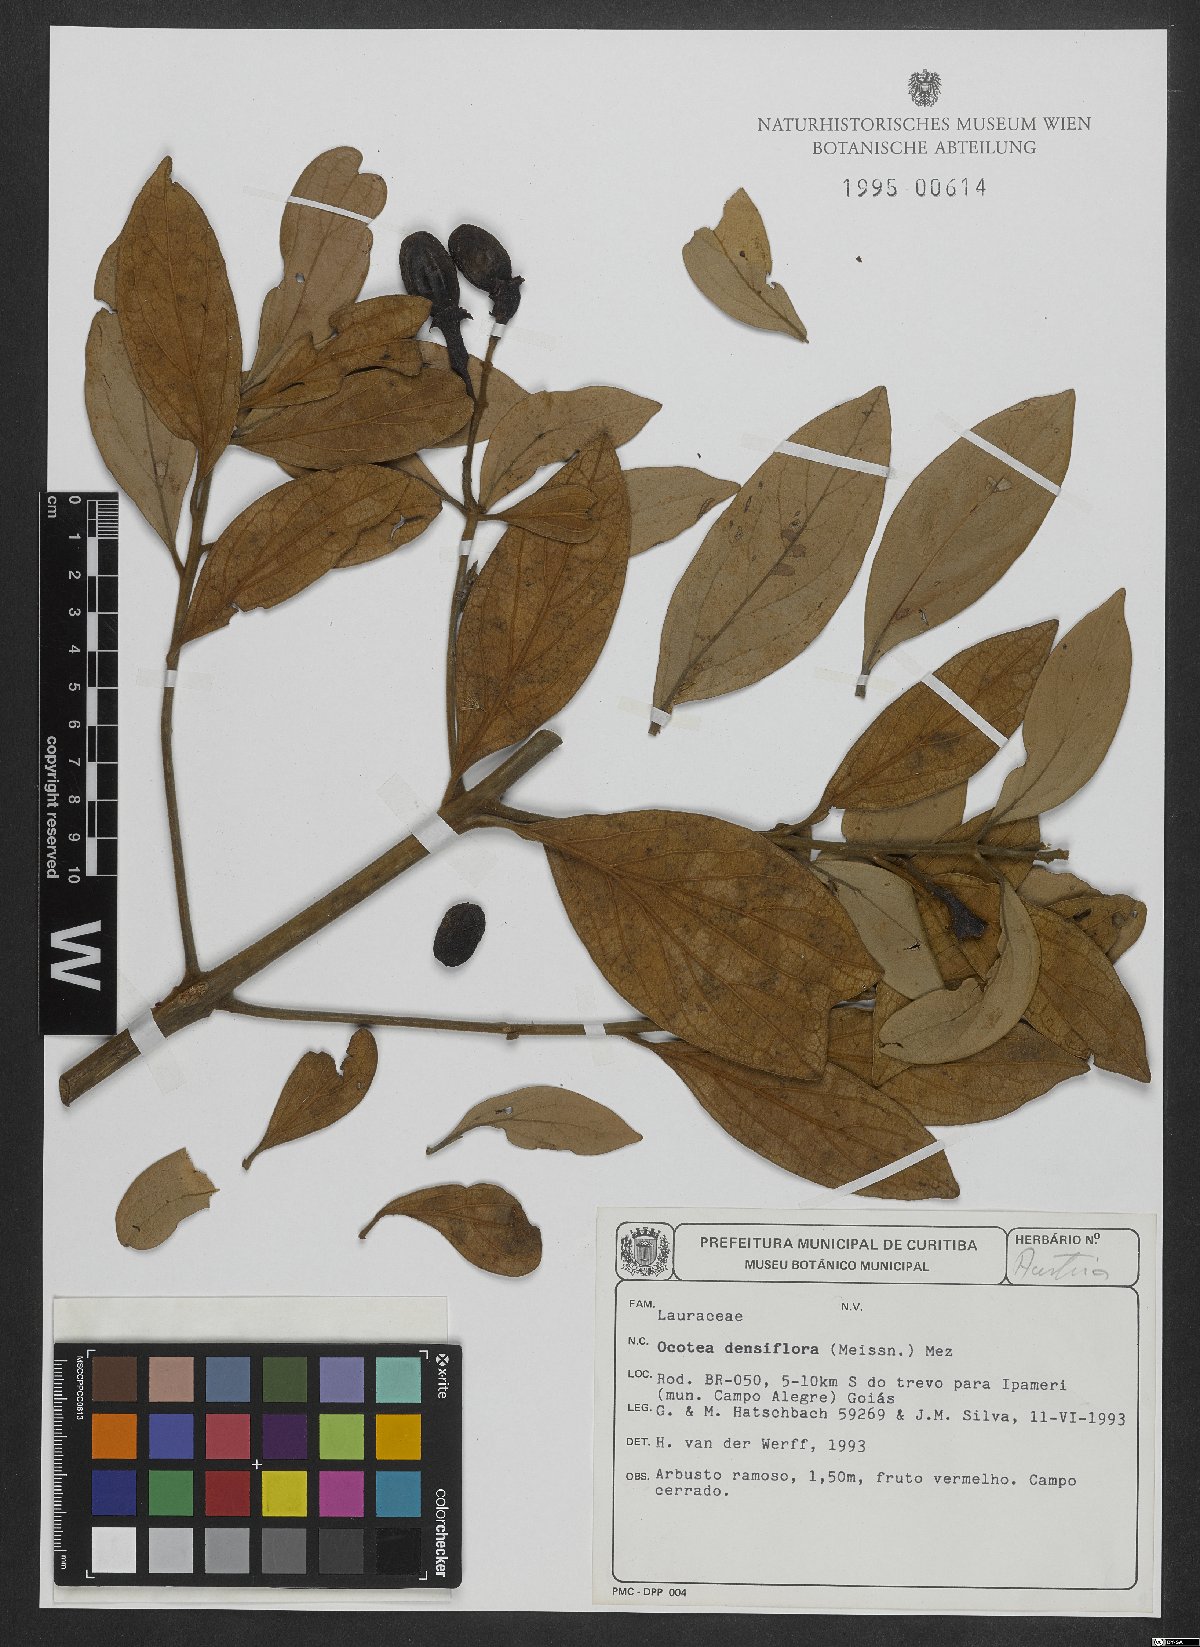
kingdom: Plantae
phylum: Tracheophyta
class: Magnoliopsida
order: Laurales
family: Lauraceae
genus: Ocotea
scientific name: Ocotea densiflora
